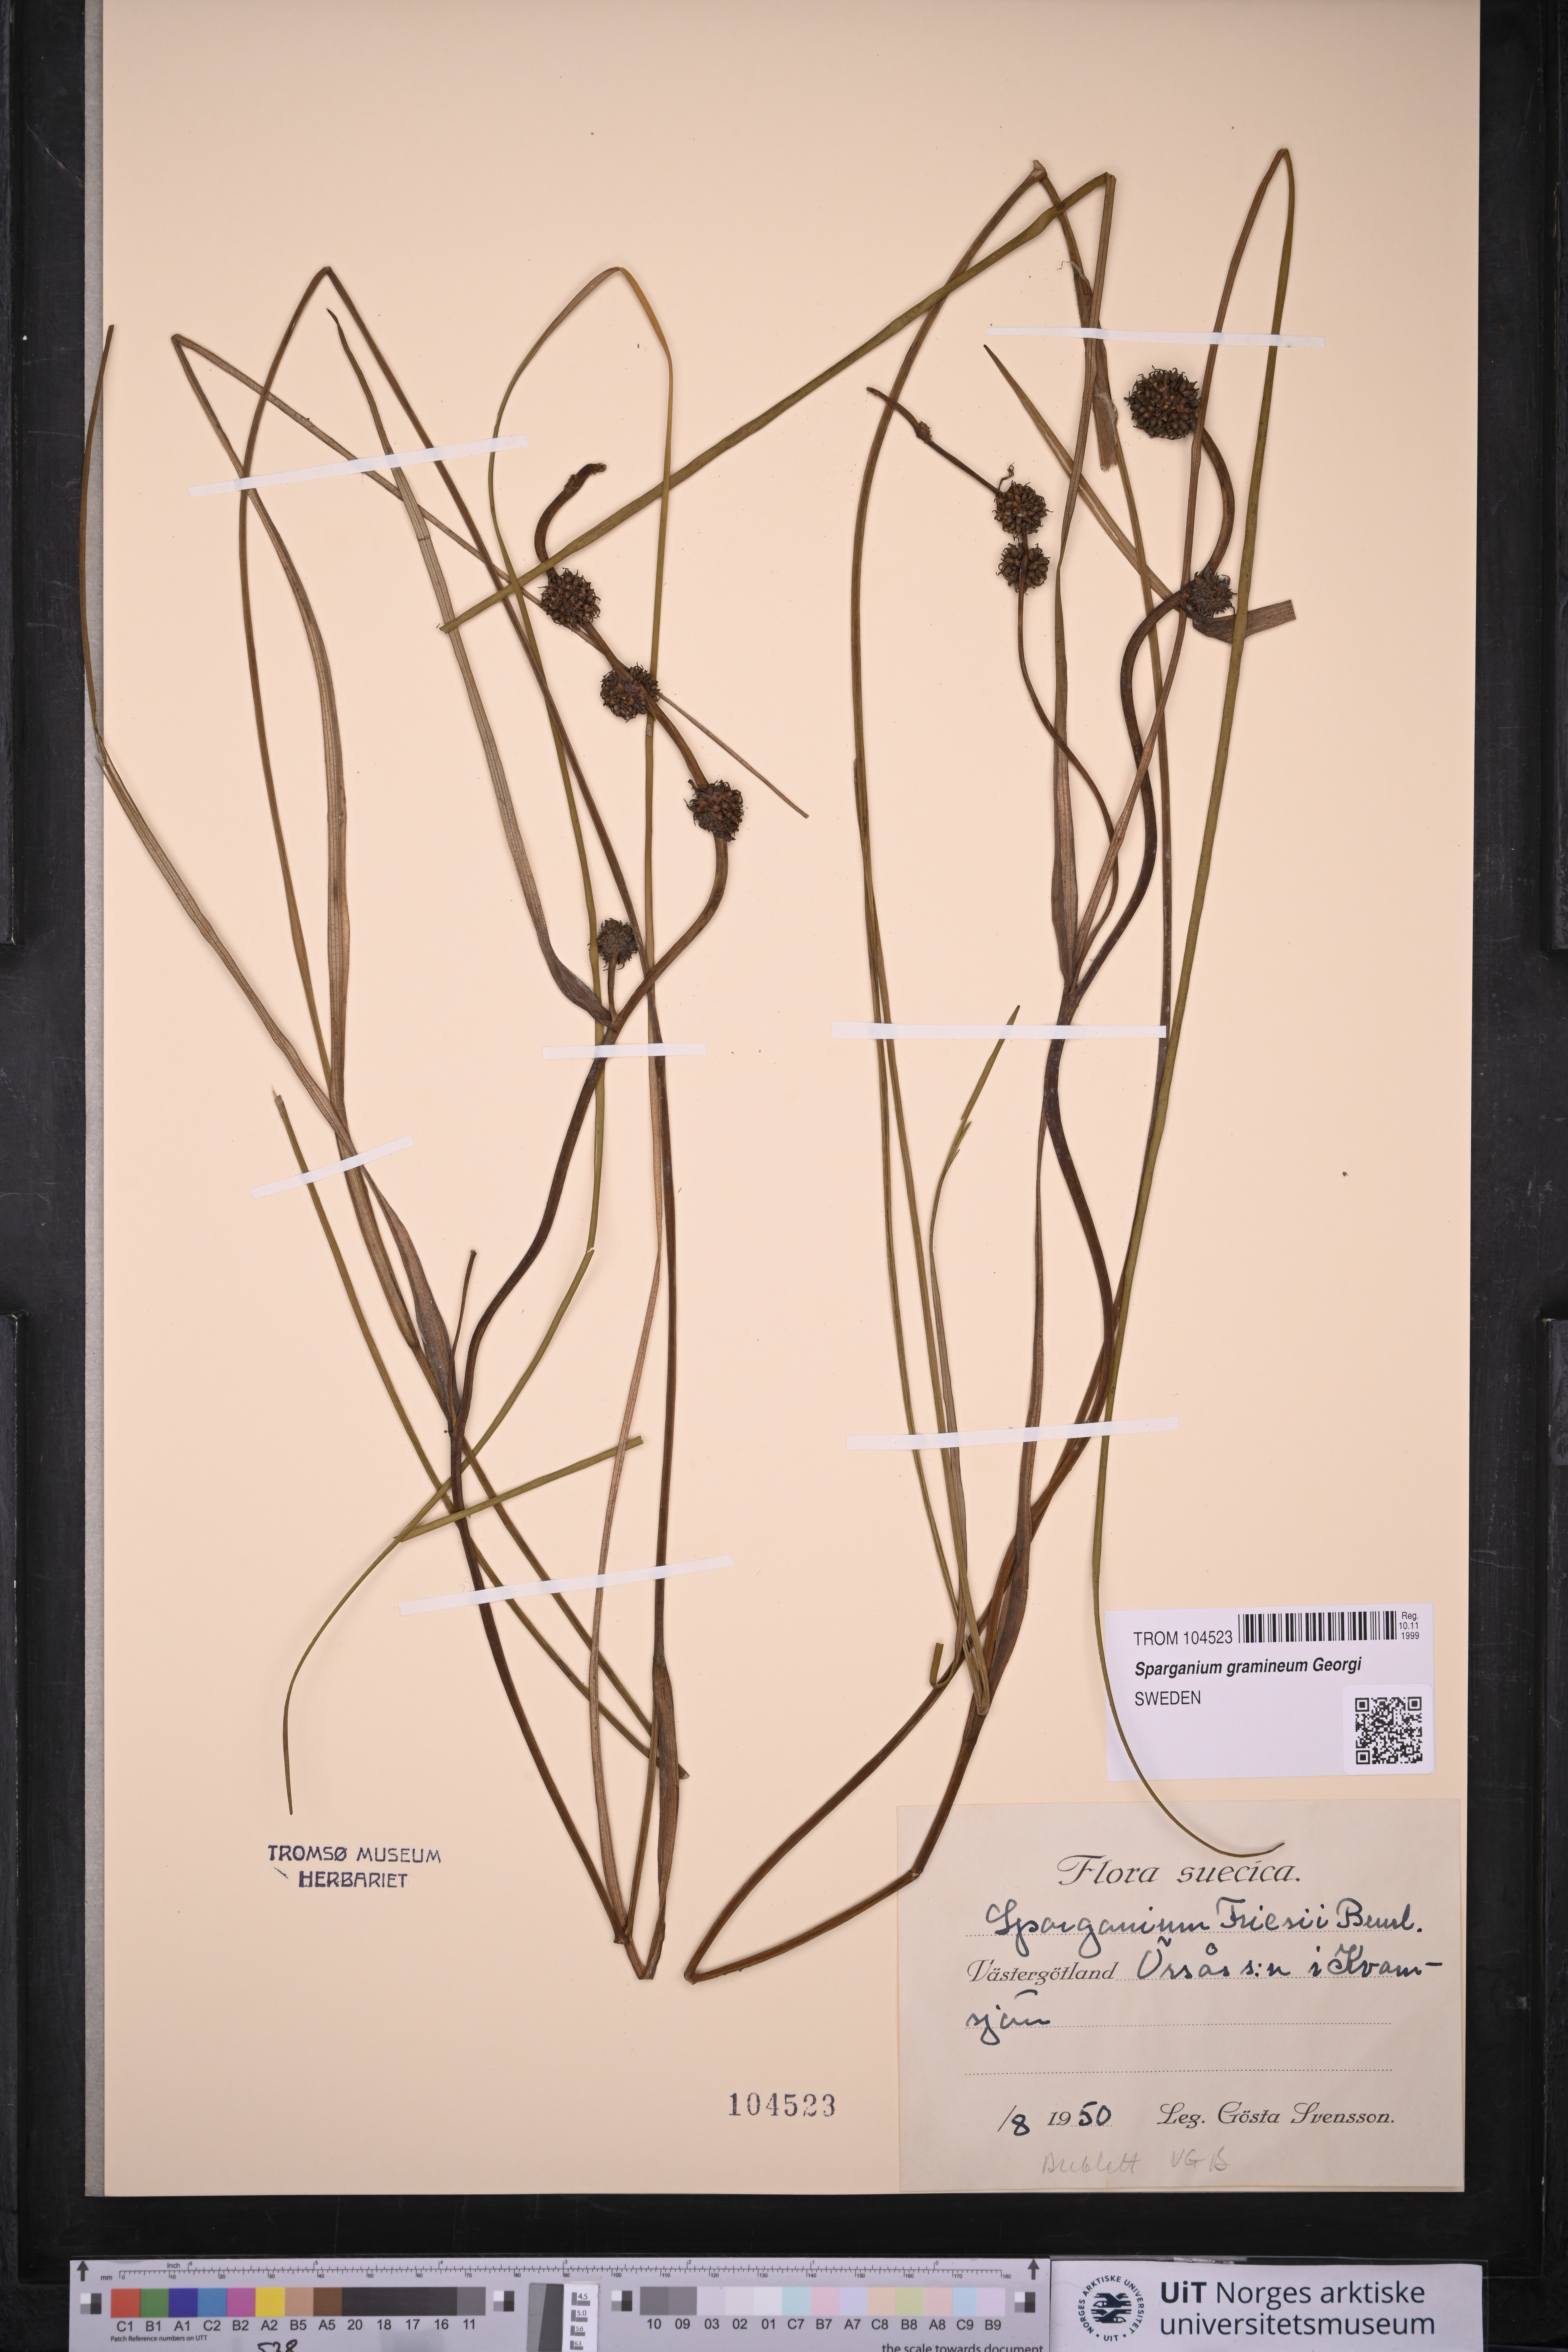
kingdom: Plantae
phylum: Tracheophyta
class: Liliopsida
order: Poales
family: Typhaceae
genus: Sparganium
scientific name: Sparganium gramineum
